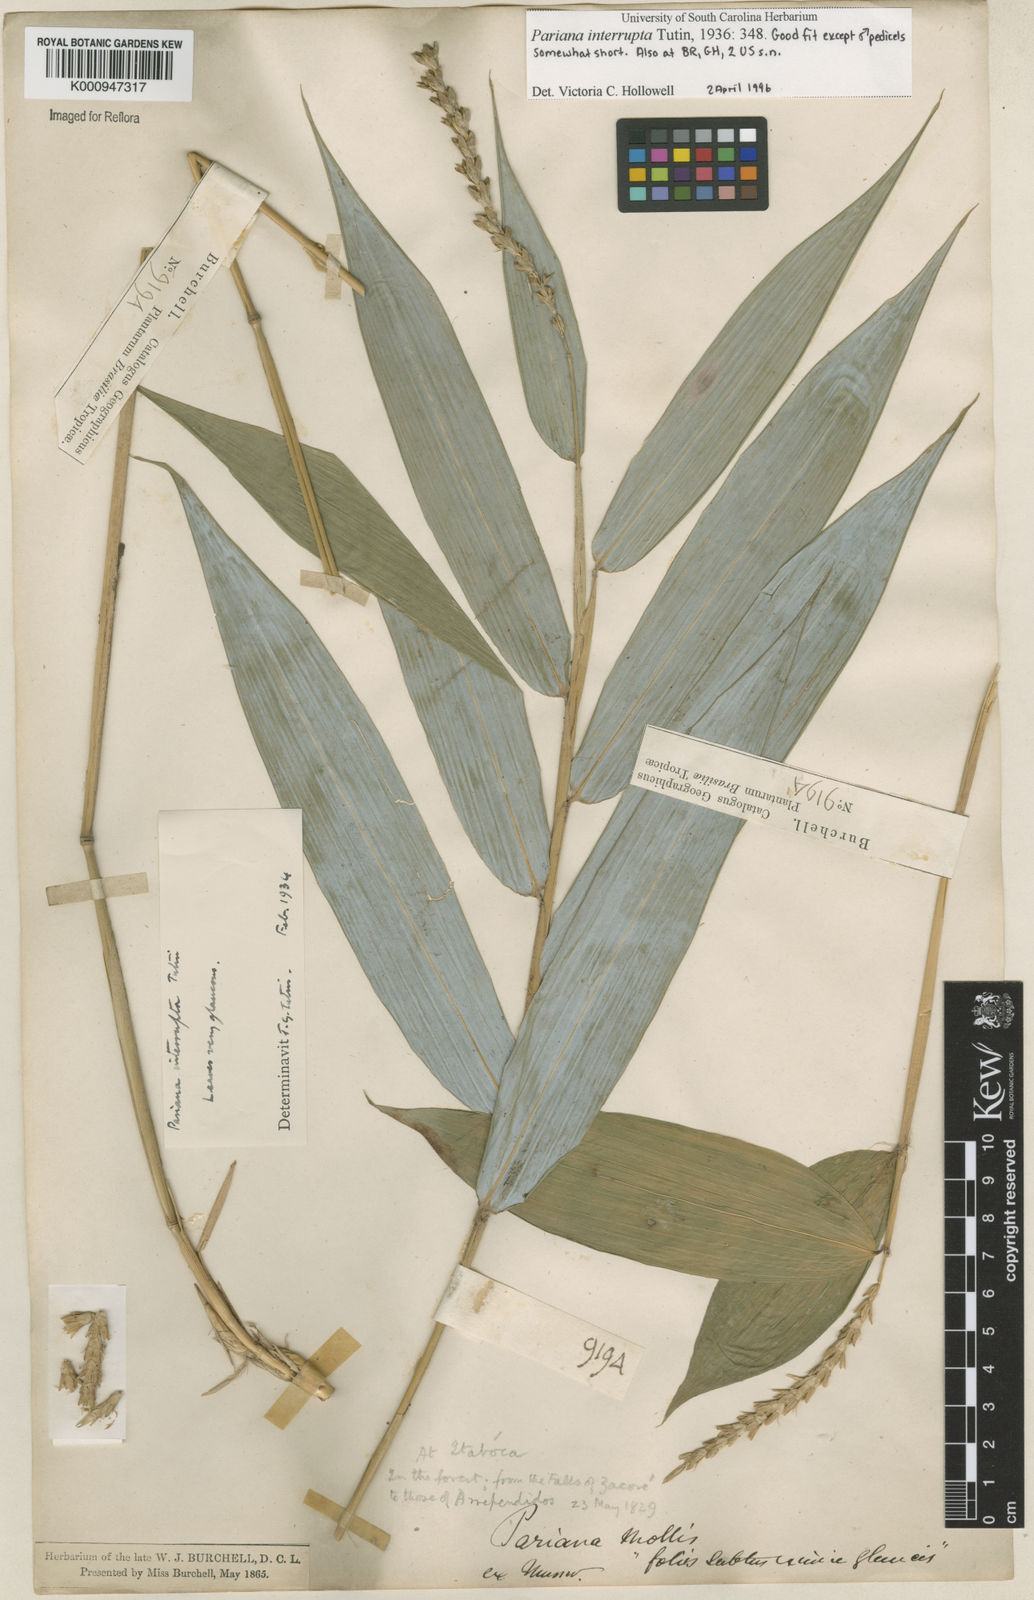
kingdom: Plantae
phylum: Tracheophyta
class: Liliopsida
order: Poales
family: Poaceae
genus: Pariana
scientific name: Pariana interrupta
